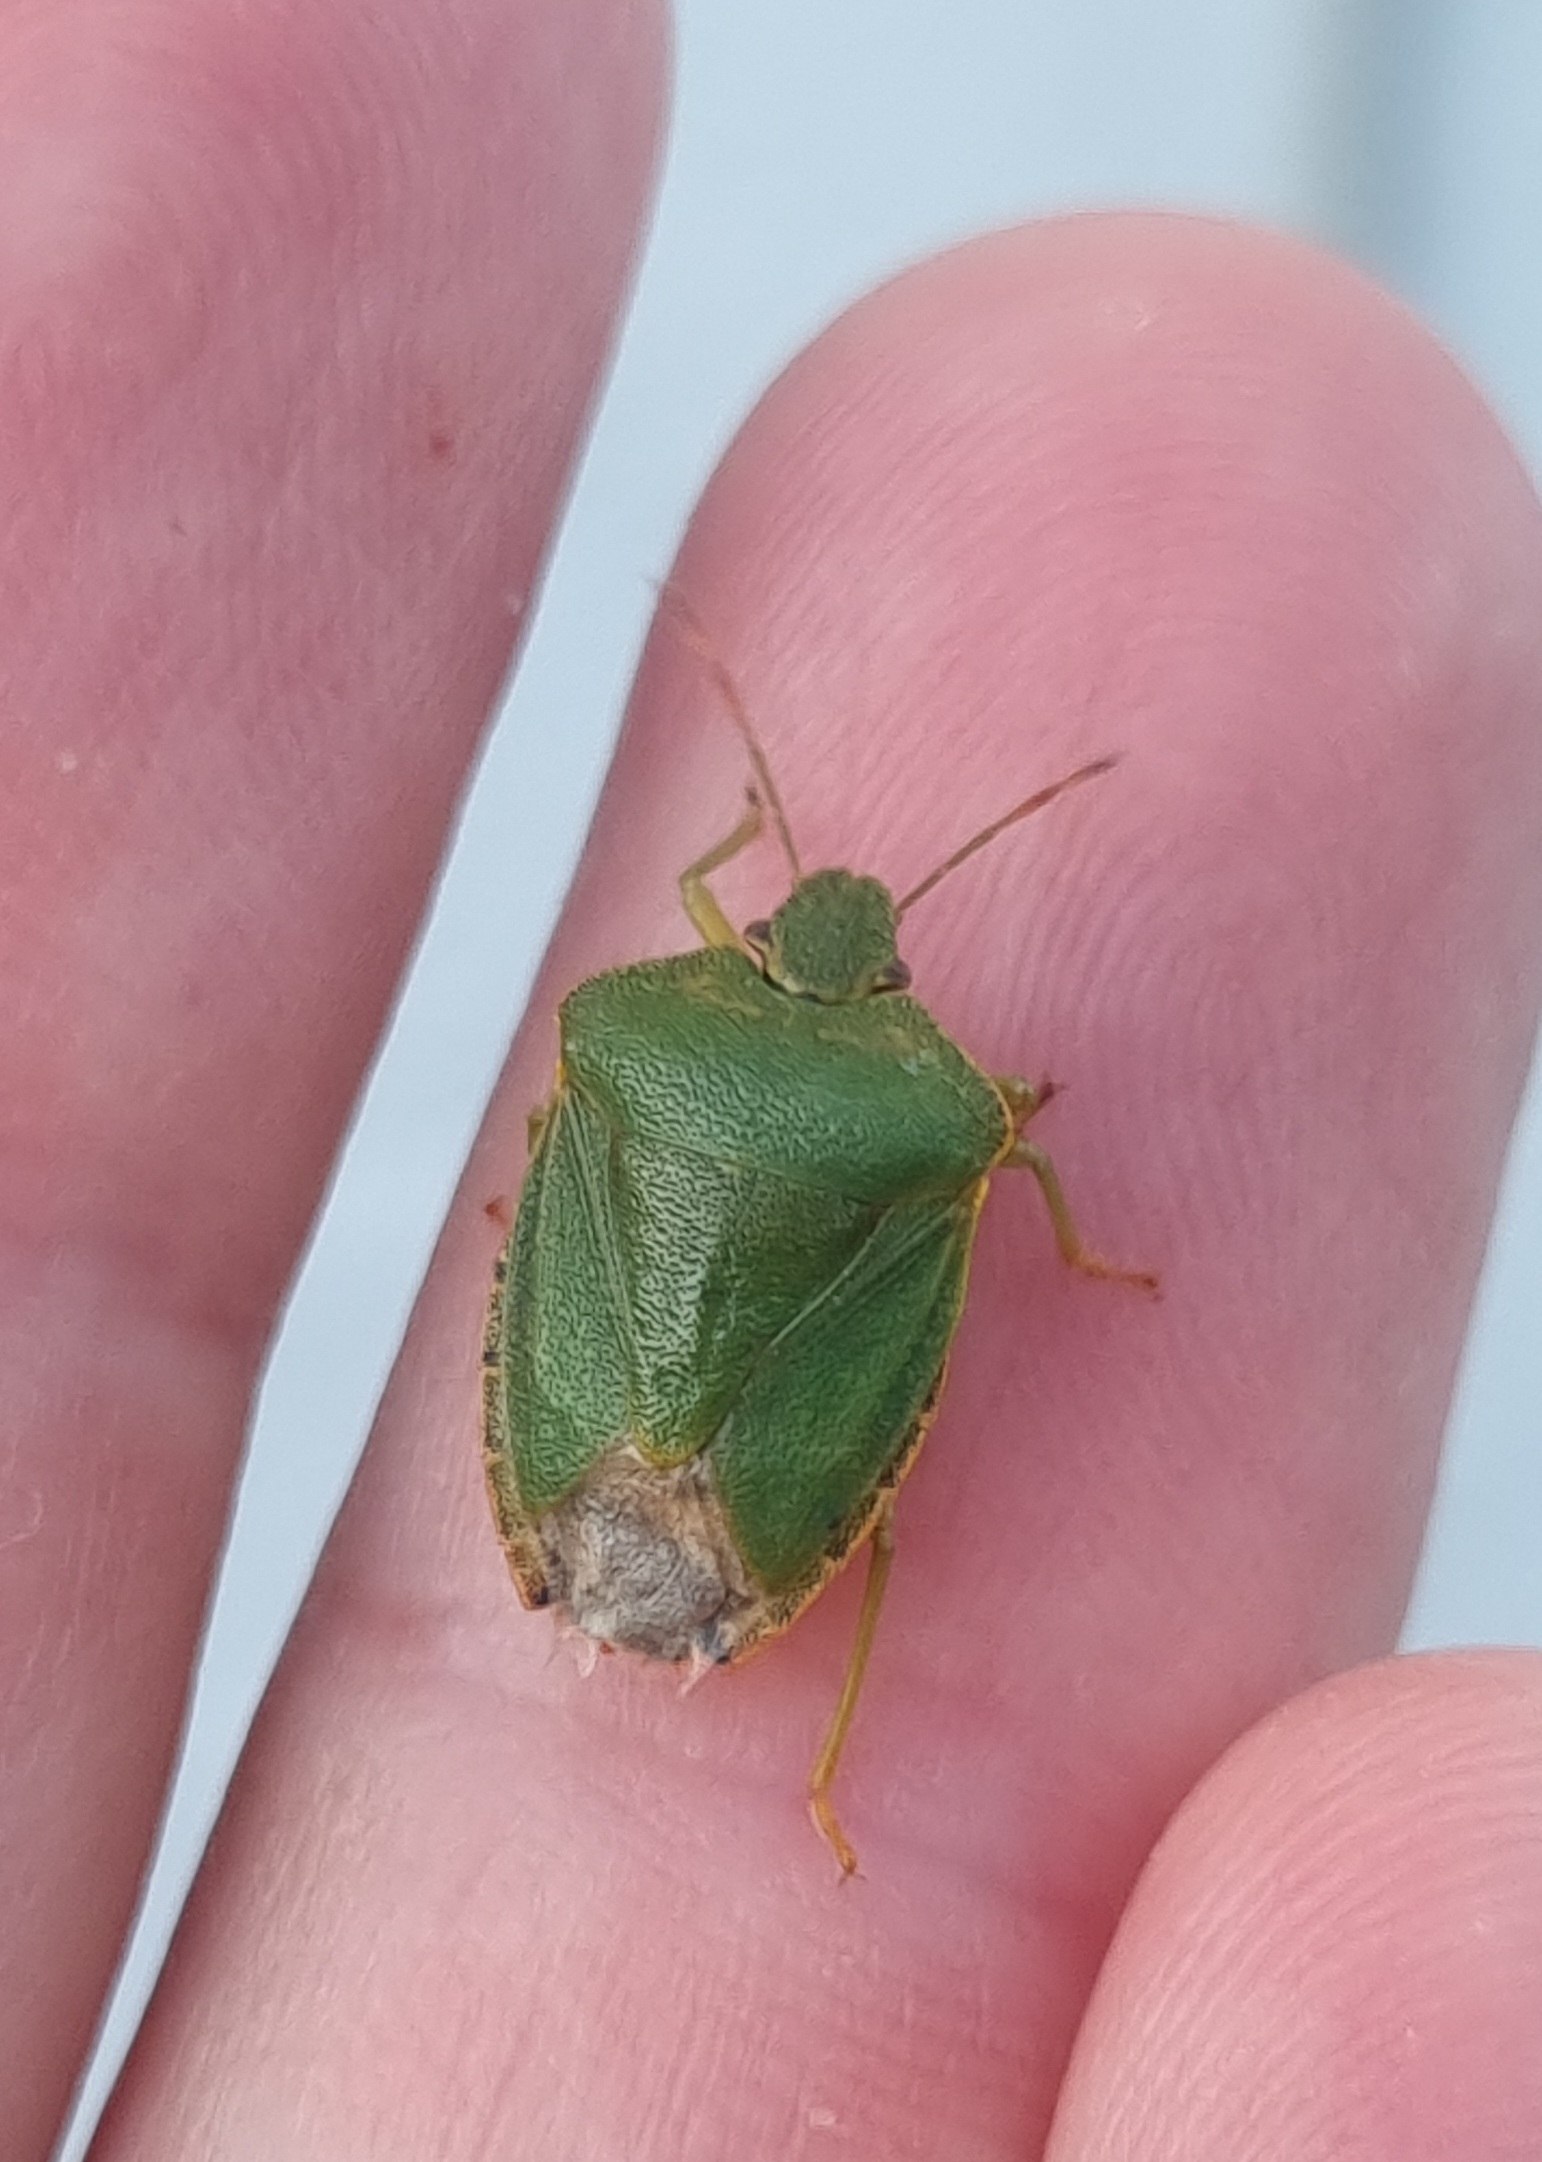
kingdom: Animalia
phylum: Arthropoda
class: Insecta
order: Hemiptera
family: Pentatomidae
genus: Palomena
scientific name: Palomena prasina
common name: Grøn bredtæge
